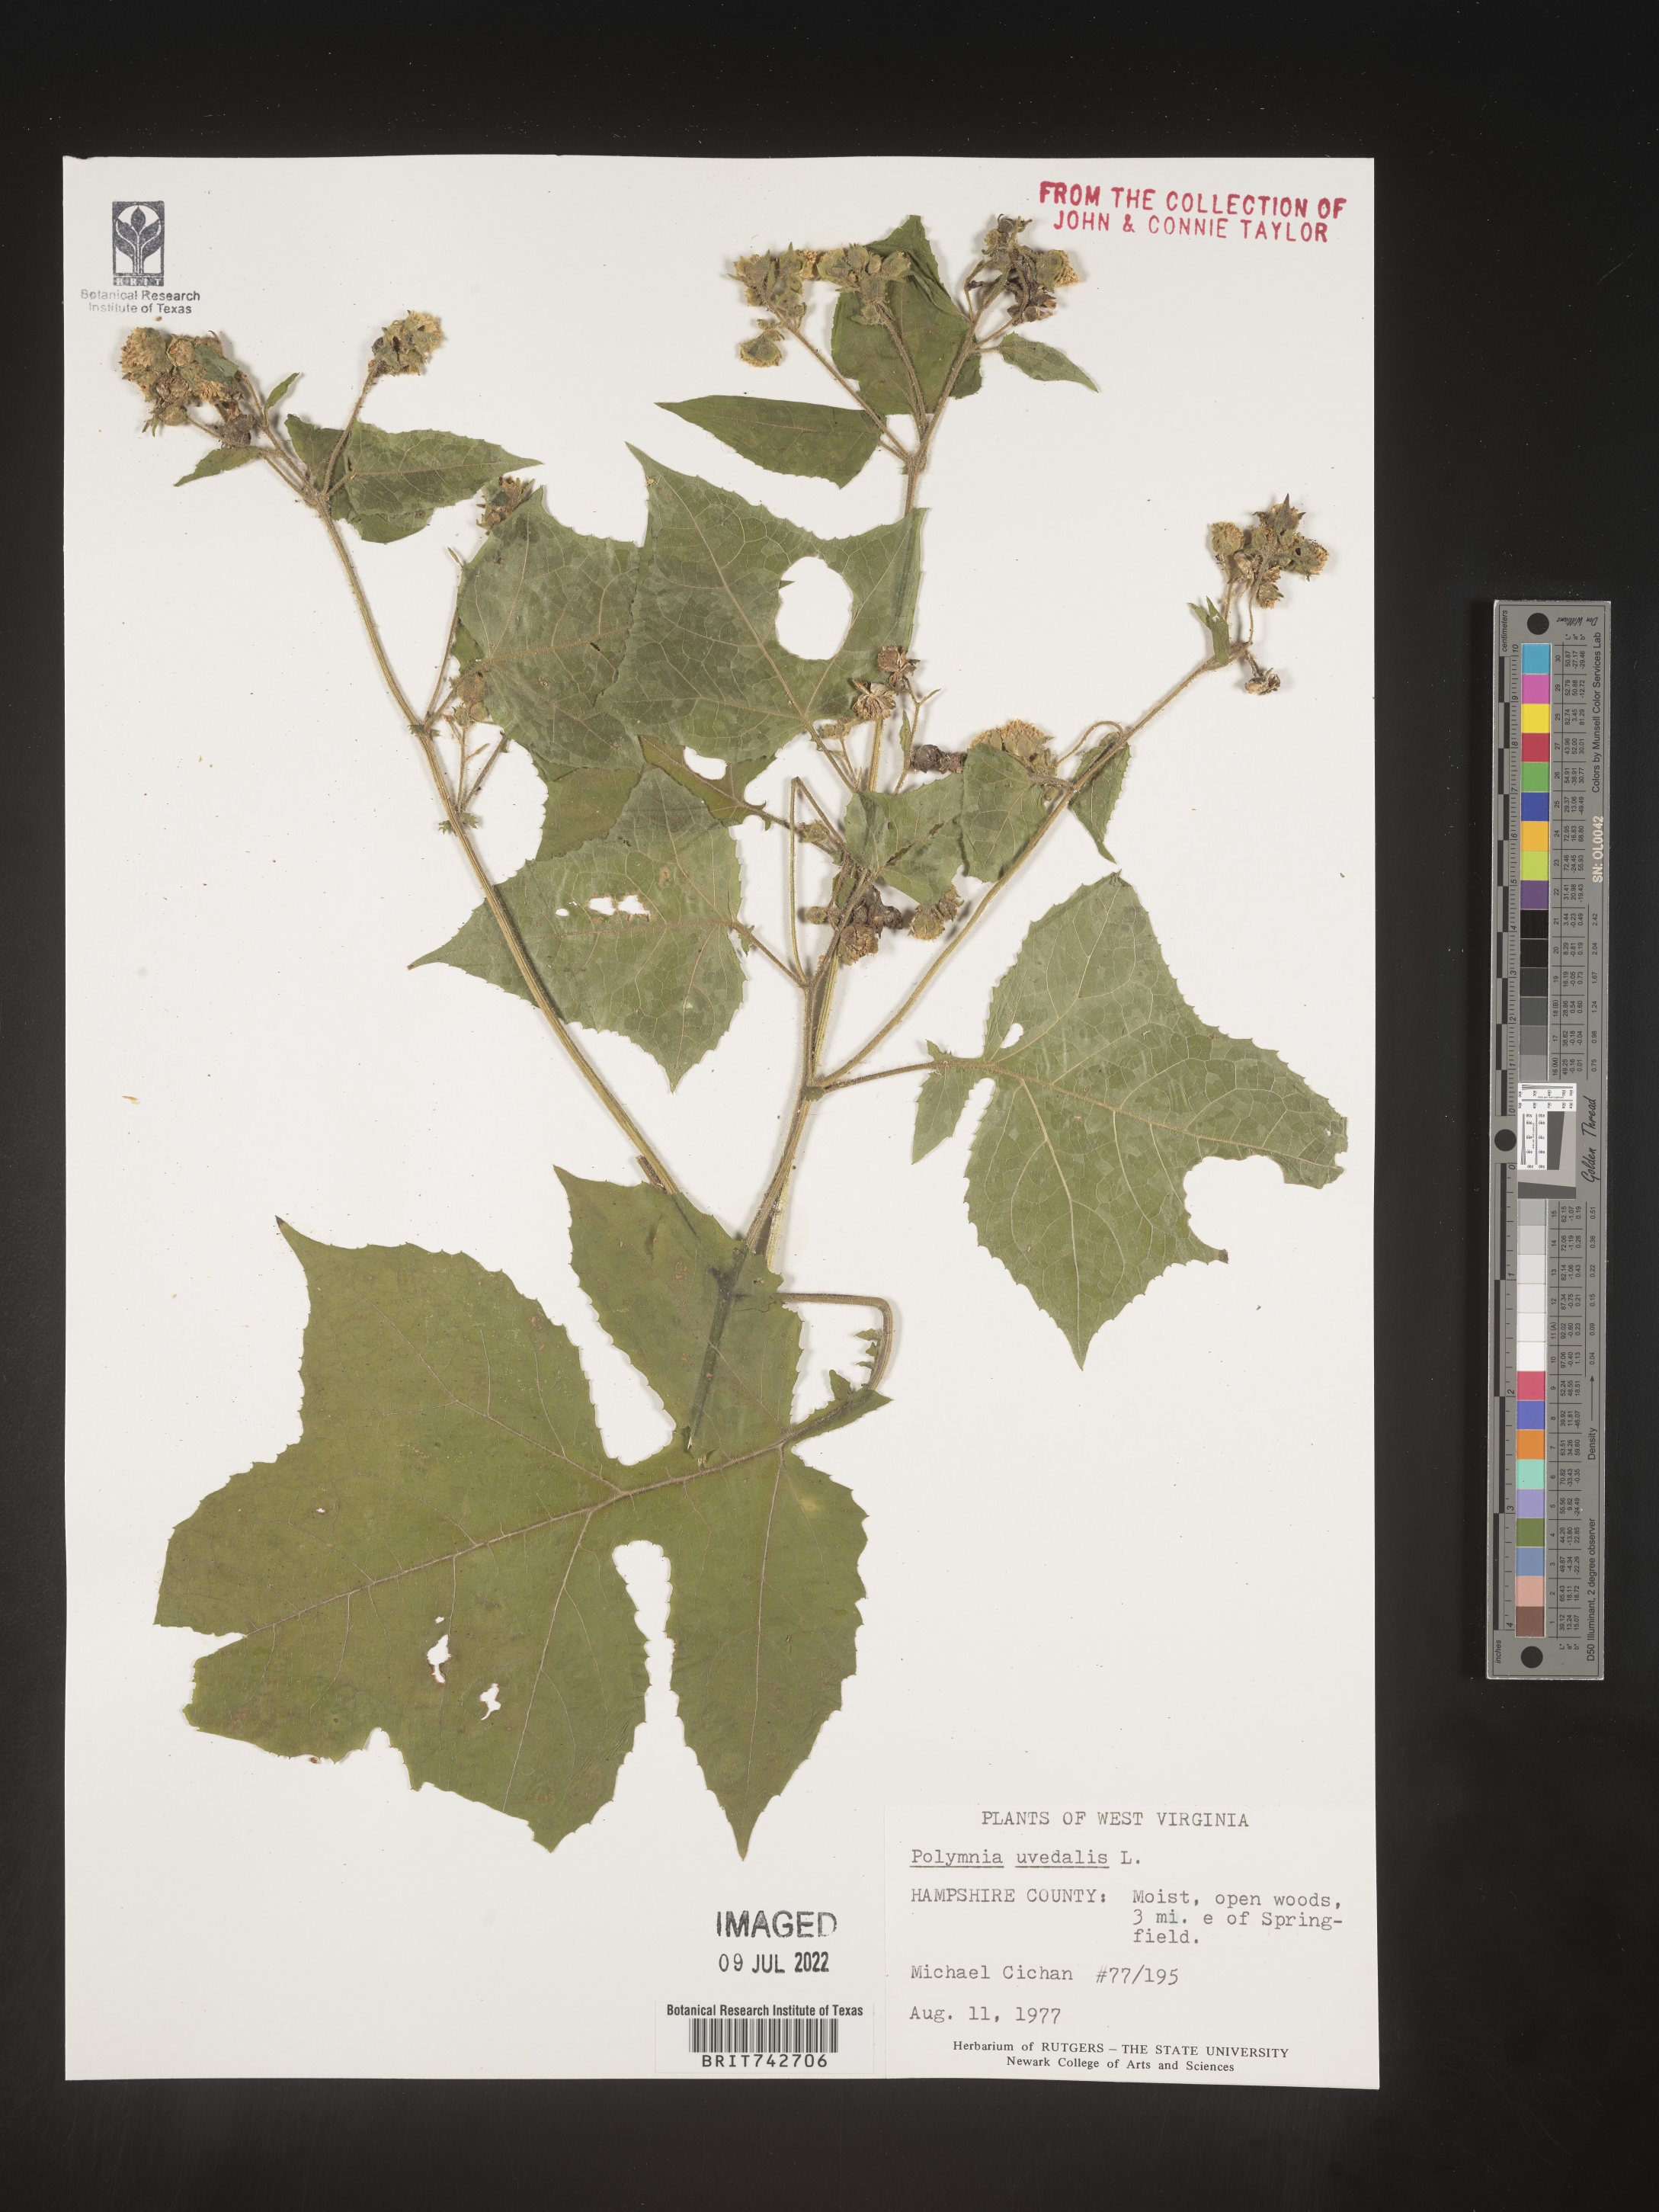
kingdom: Plantae
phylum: Tracheophyta
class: Magnoliopsida
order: Asterales
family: Asteraceae
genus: Smallanthus
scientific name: Smallanthus uvedalia
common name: Bear's-foot
